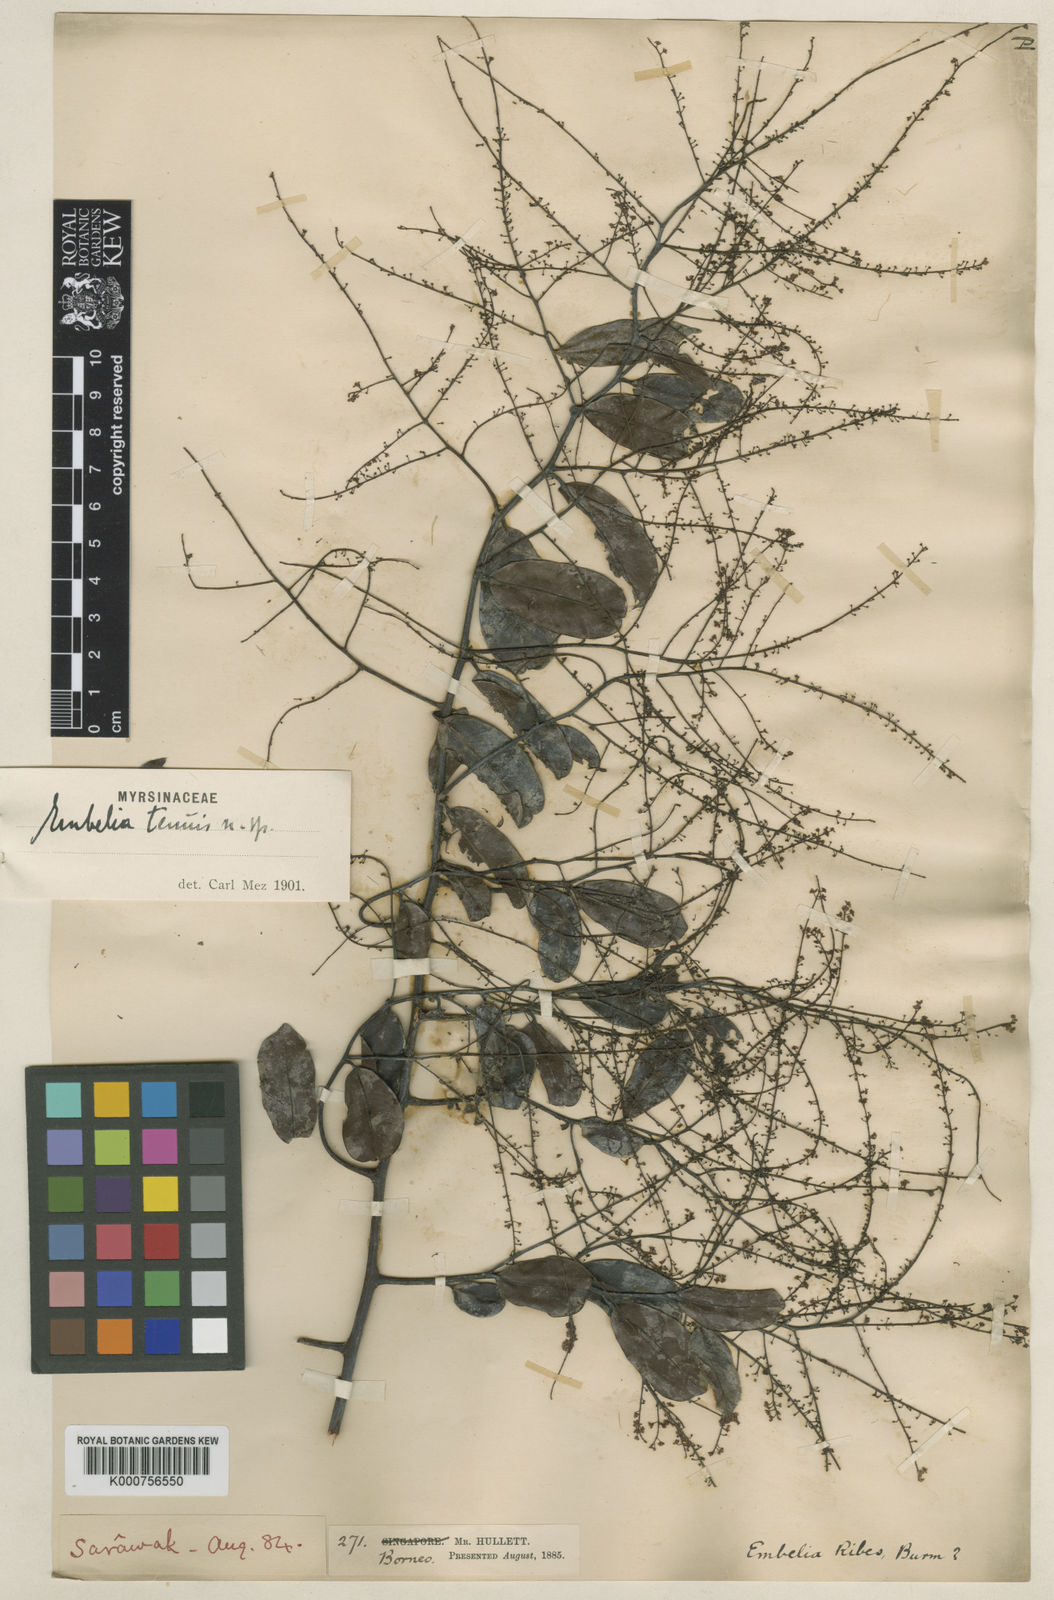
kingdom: Plantae
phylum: Tracheophyta
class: Magnoliopsida
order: Ericales
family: Primulaceae
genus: Embelia
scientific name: Embelia ribes
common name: Vidanga
